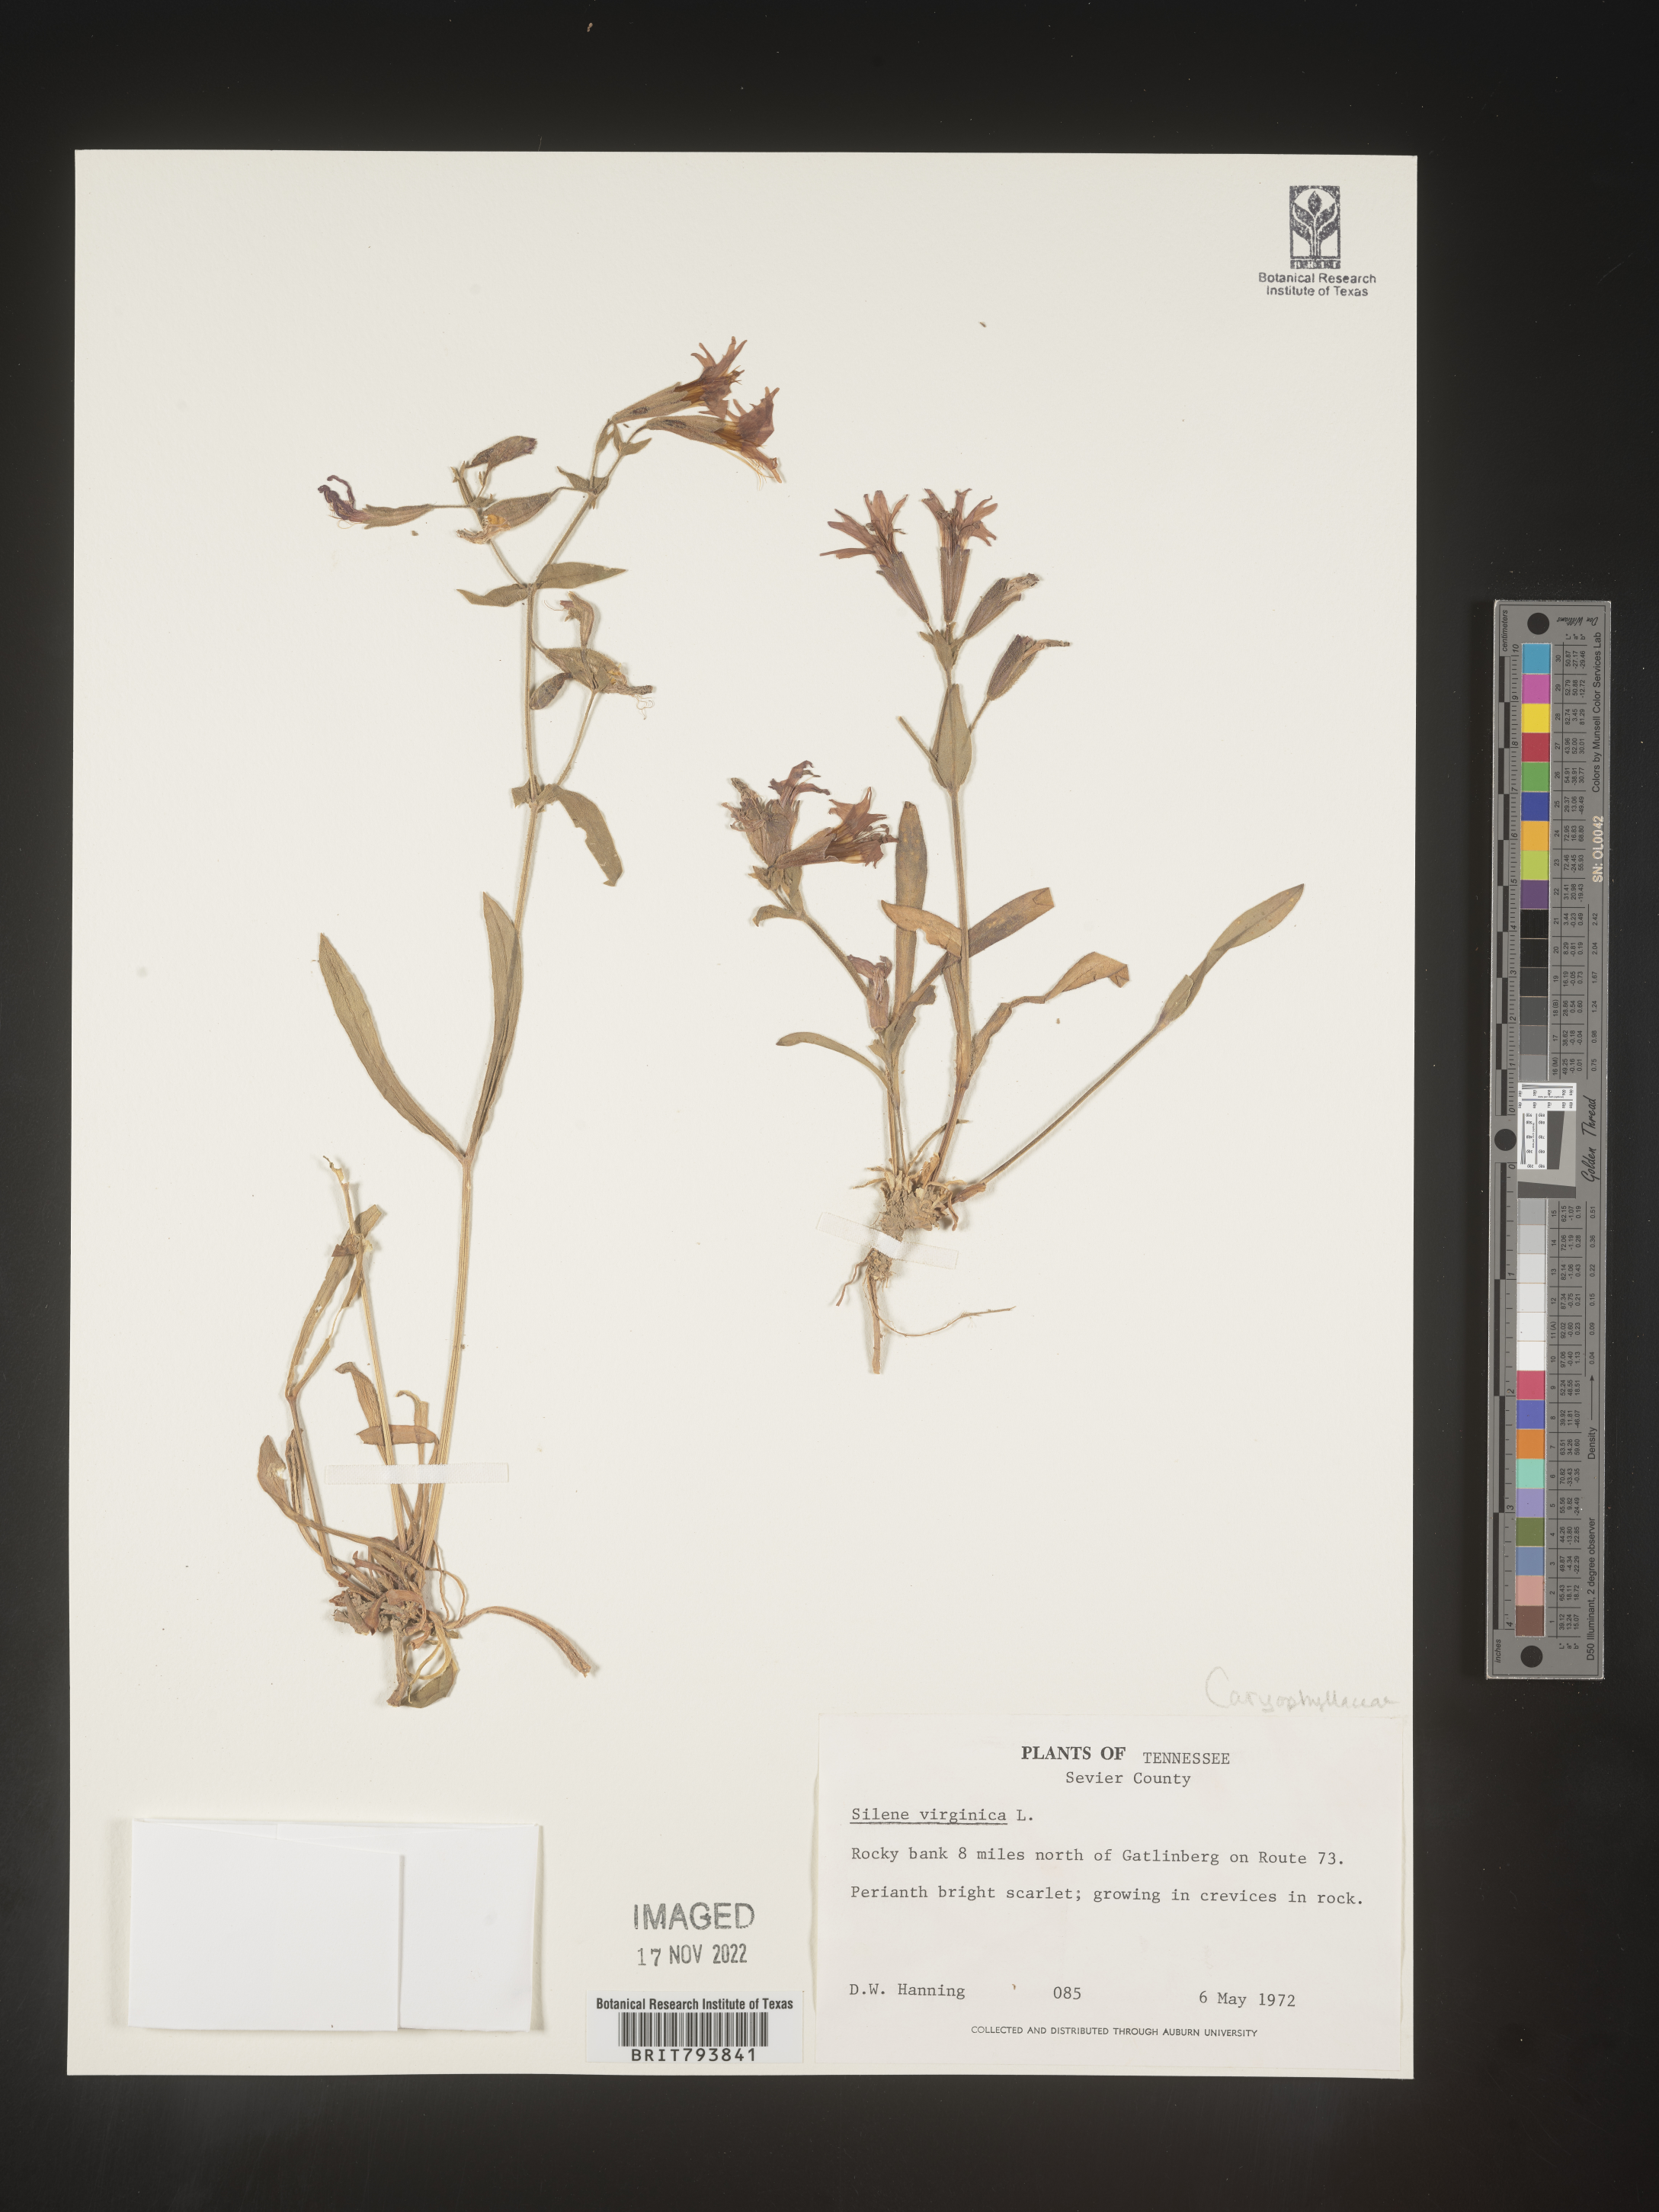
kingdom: Plantae
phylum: Tracheophyta
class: Magnoliopsida
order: Caryophyllales
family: Caryophyllaceae
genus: Silene
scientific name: Silene virginica
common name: Fire-pink
